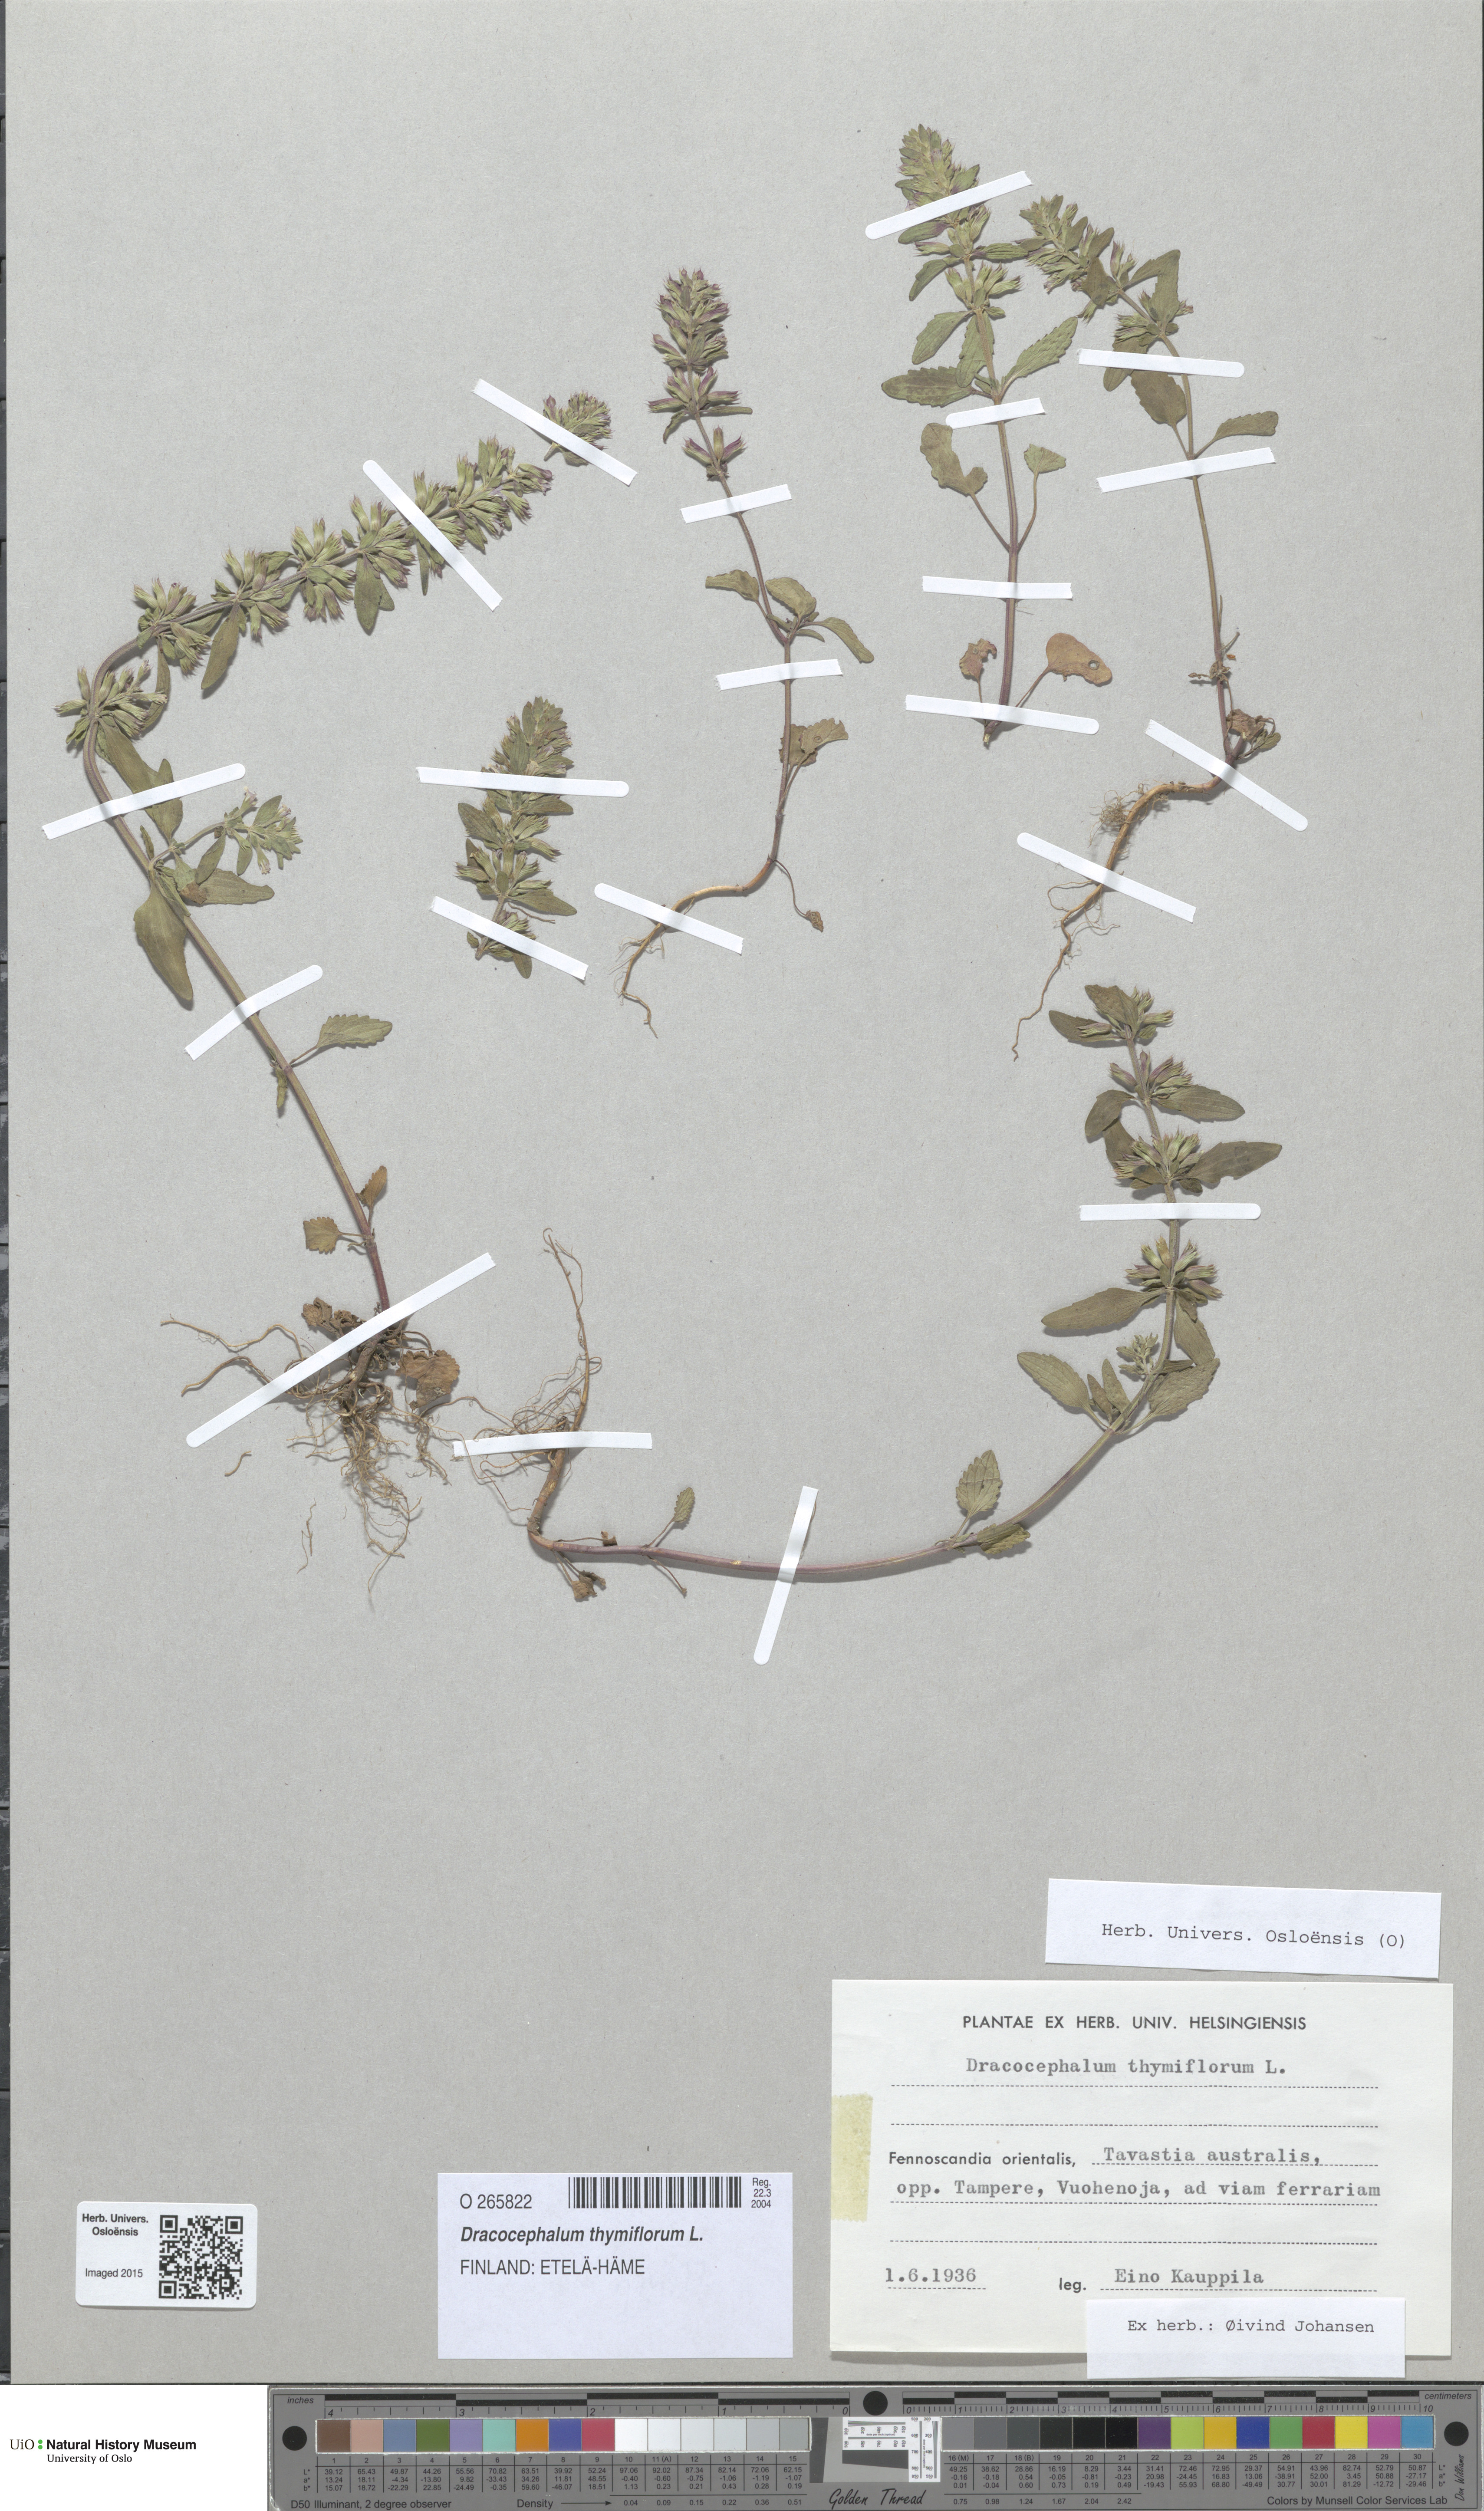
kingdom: Plantae
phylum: Tracheophyta
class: Magnoliopsida
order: Lamiales
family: Lamiaceae
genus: Dracocephalum
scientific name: Dracocephalum thymiflorum
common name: Thymeleaf dragonhead
